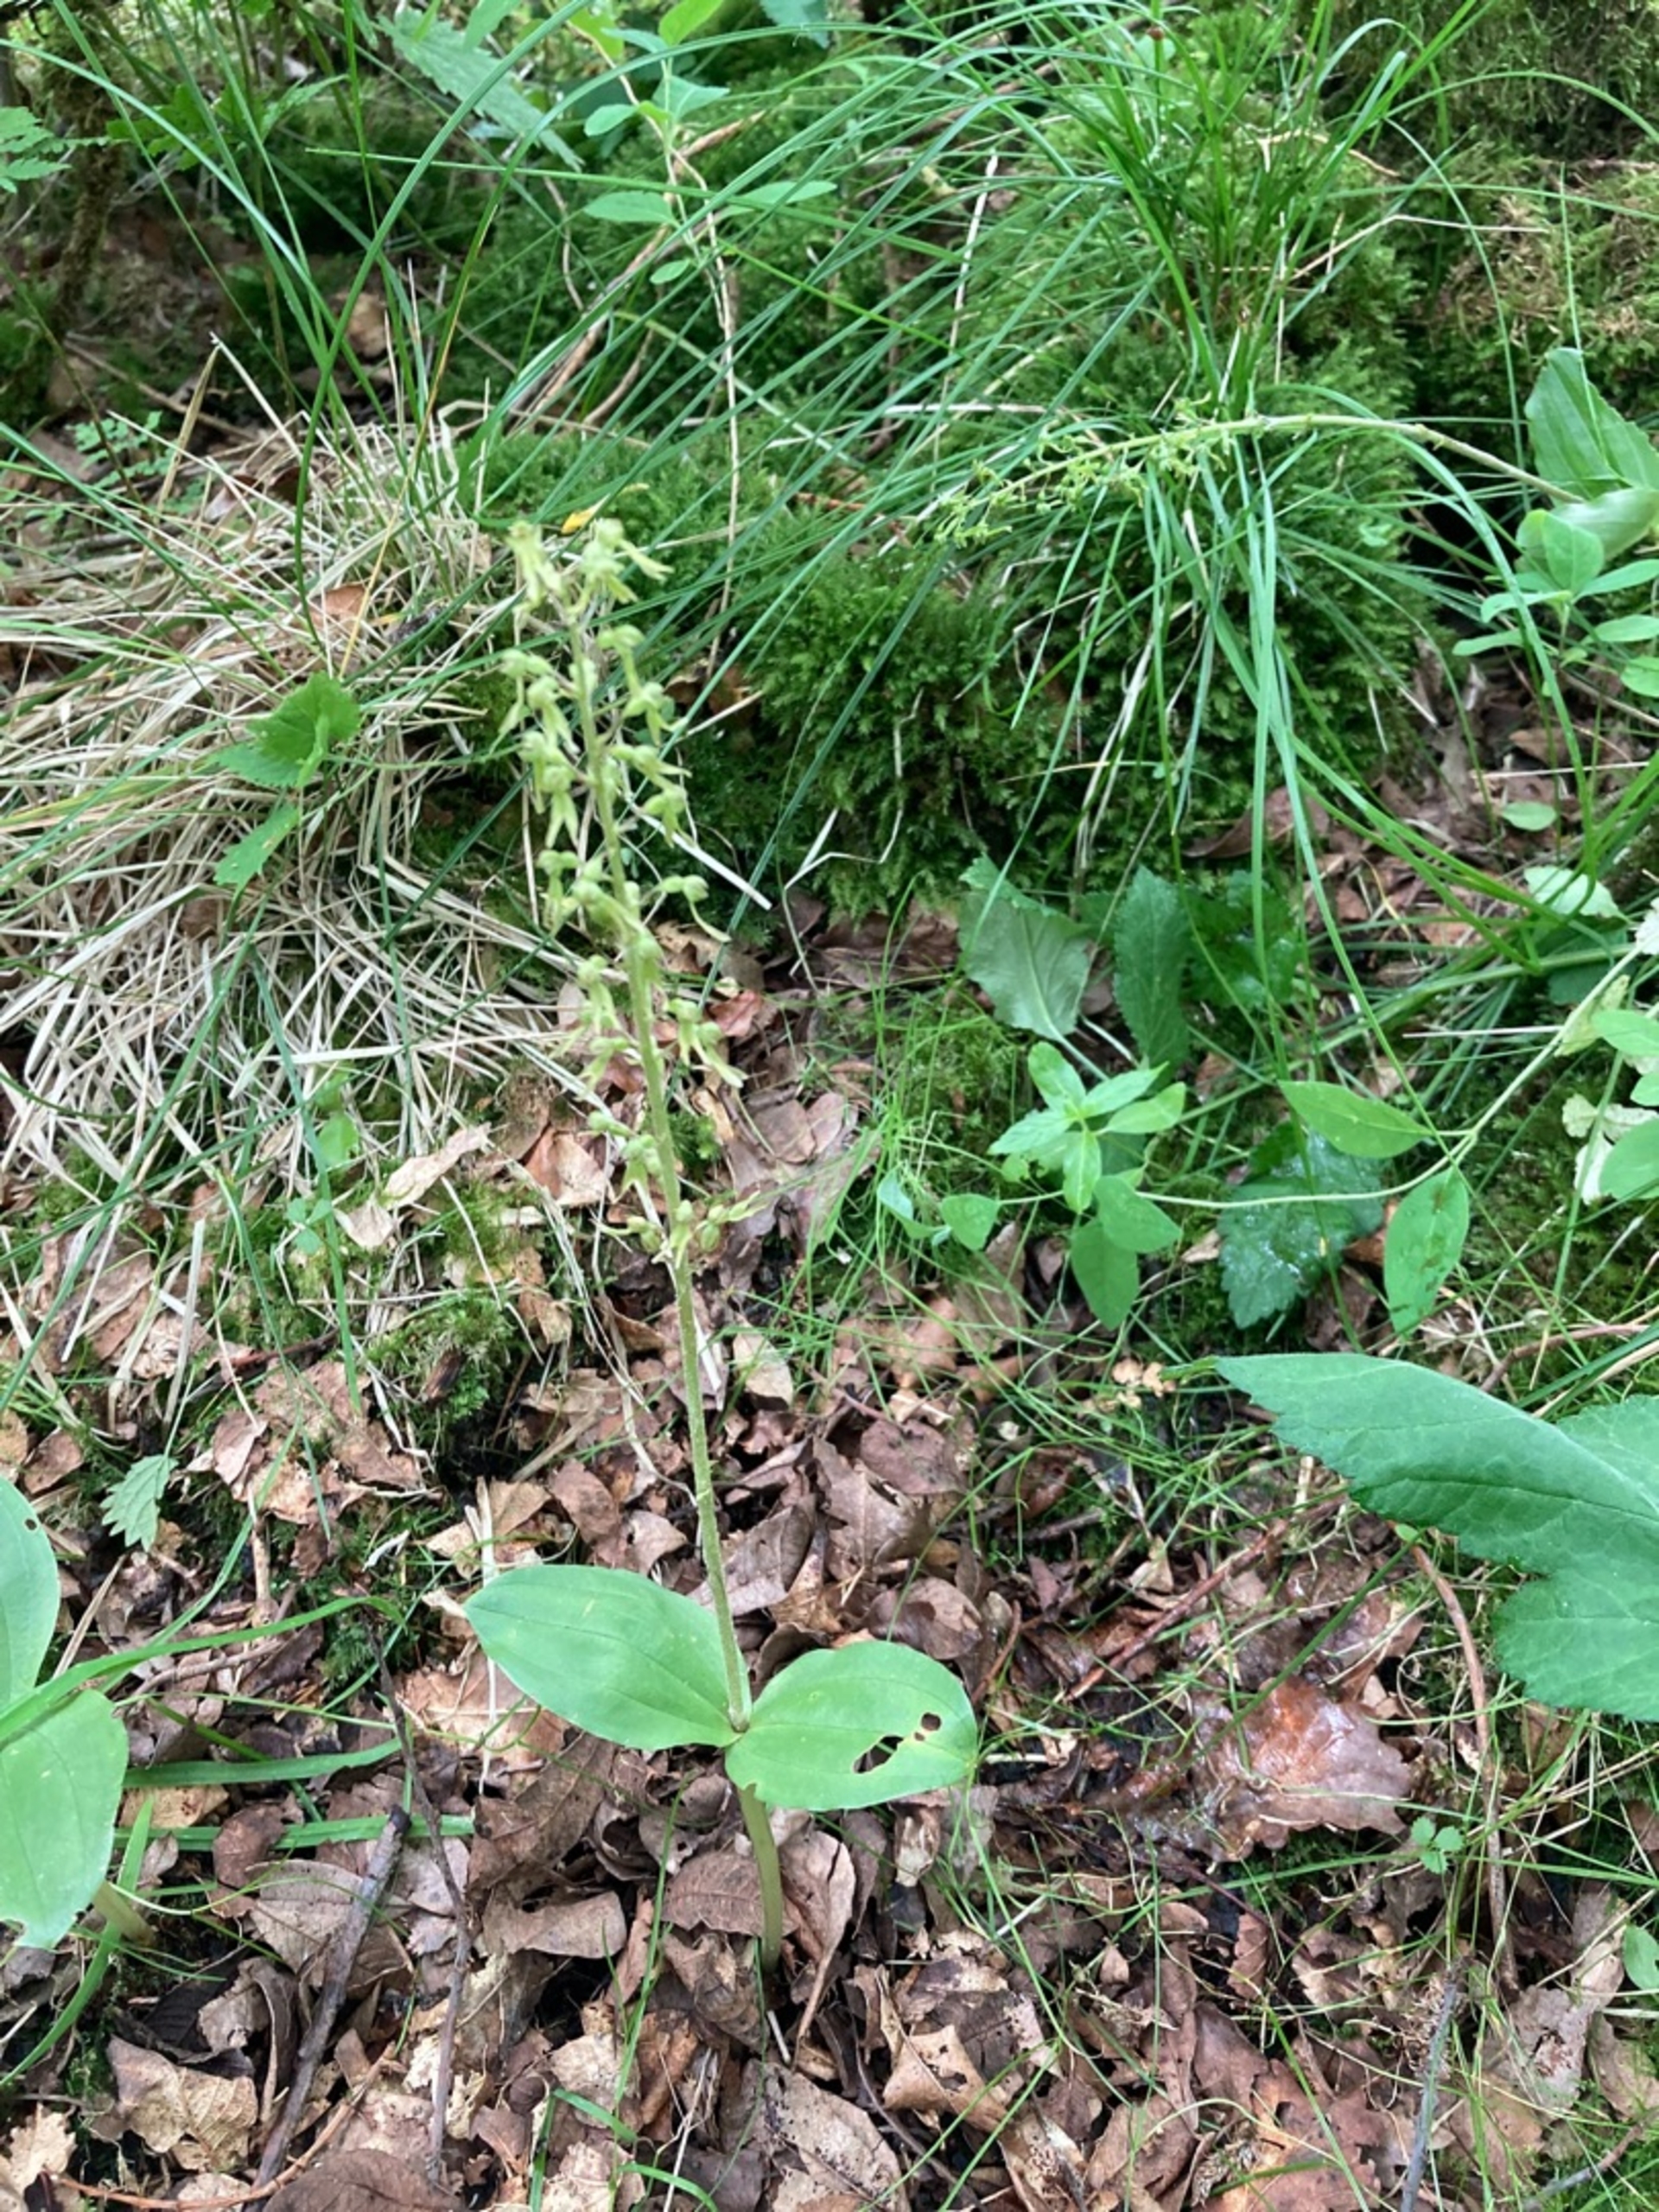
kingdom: Plantae
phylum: Tracheophyta
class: Liliopsida
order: Asparagales
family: Orchidaceae
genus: Neottia
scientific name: Neottia ovata
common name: Ægbladet fliglæbe
